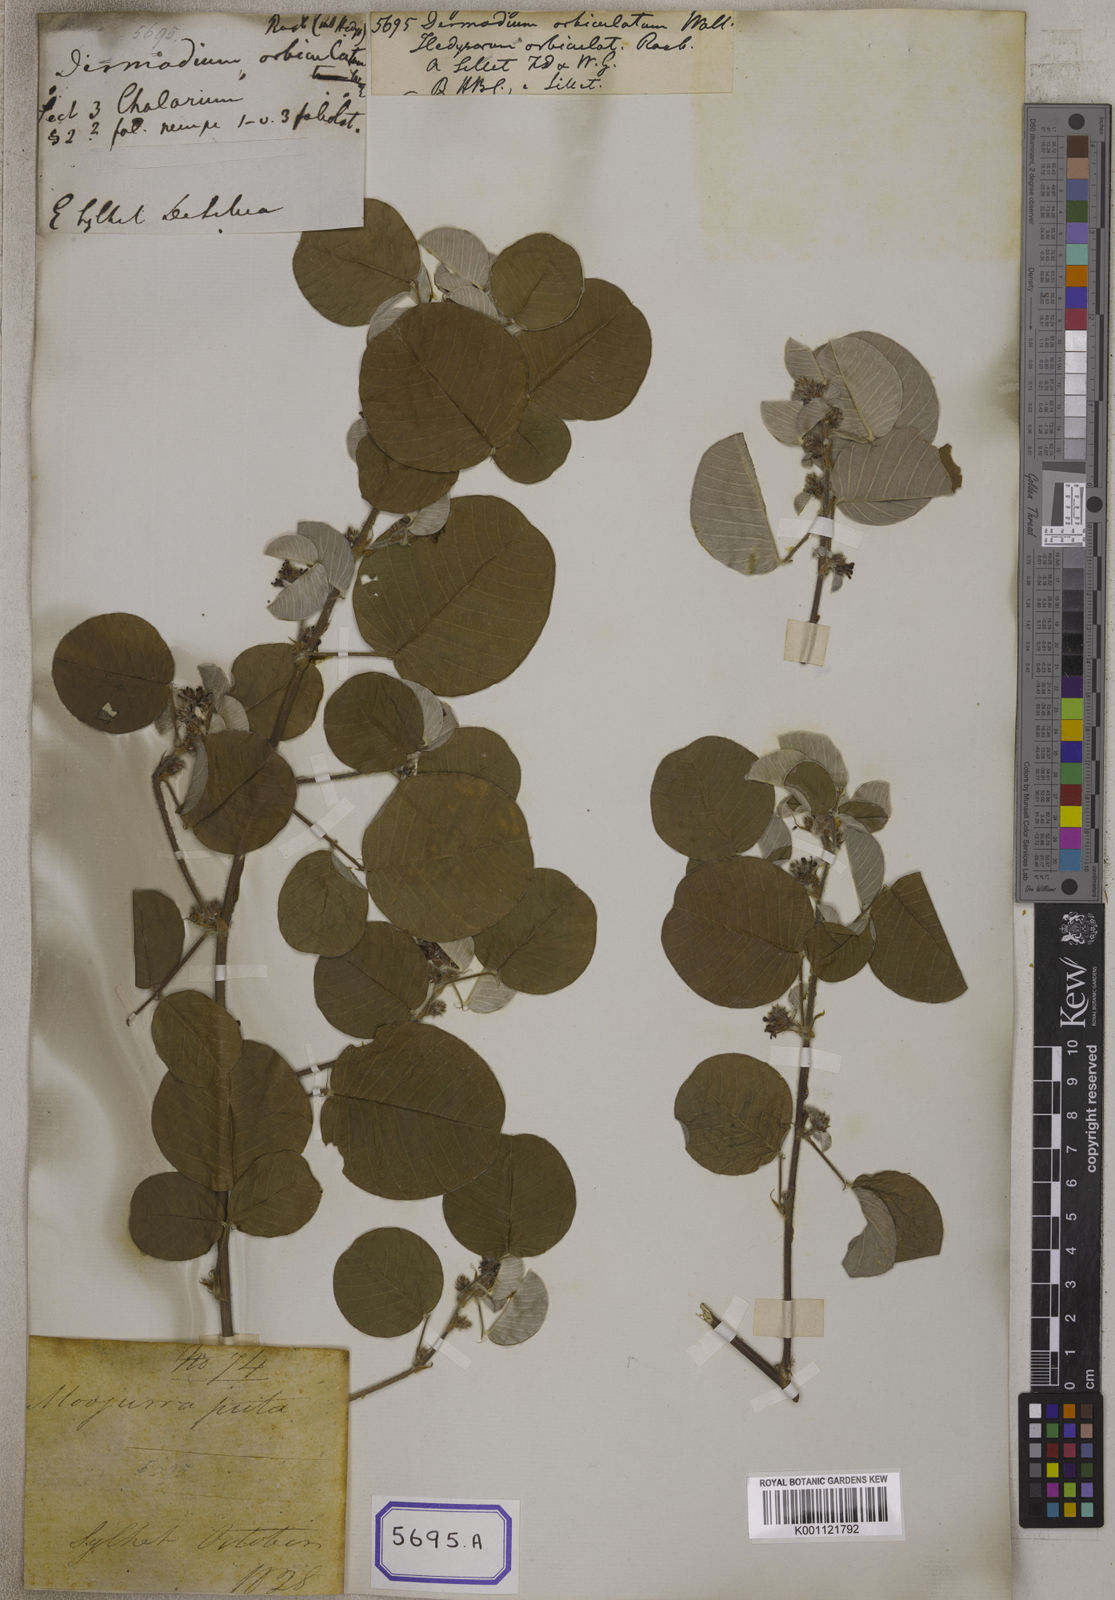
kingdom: Plantae
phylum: Tracheophyta
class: Magnoliopsida
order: Fabales
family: Fabaceae
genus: Desmodium
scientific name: Desmodium
